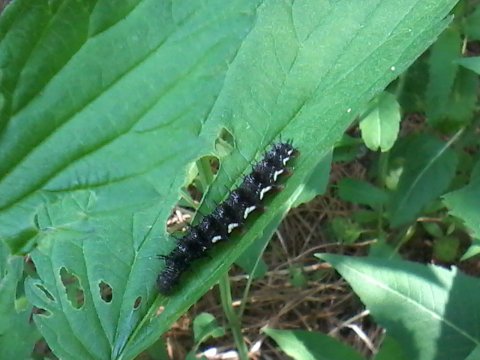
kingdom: Animalia
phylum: Arthropoda
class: Insecta
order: Lepidoptera
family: Nymphalidae
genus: Vanessa
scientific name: Vanessa atalanta
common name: Red Admiral
